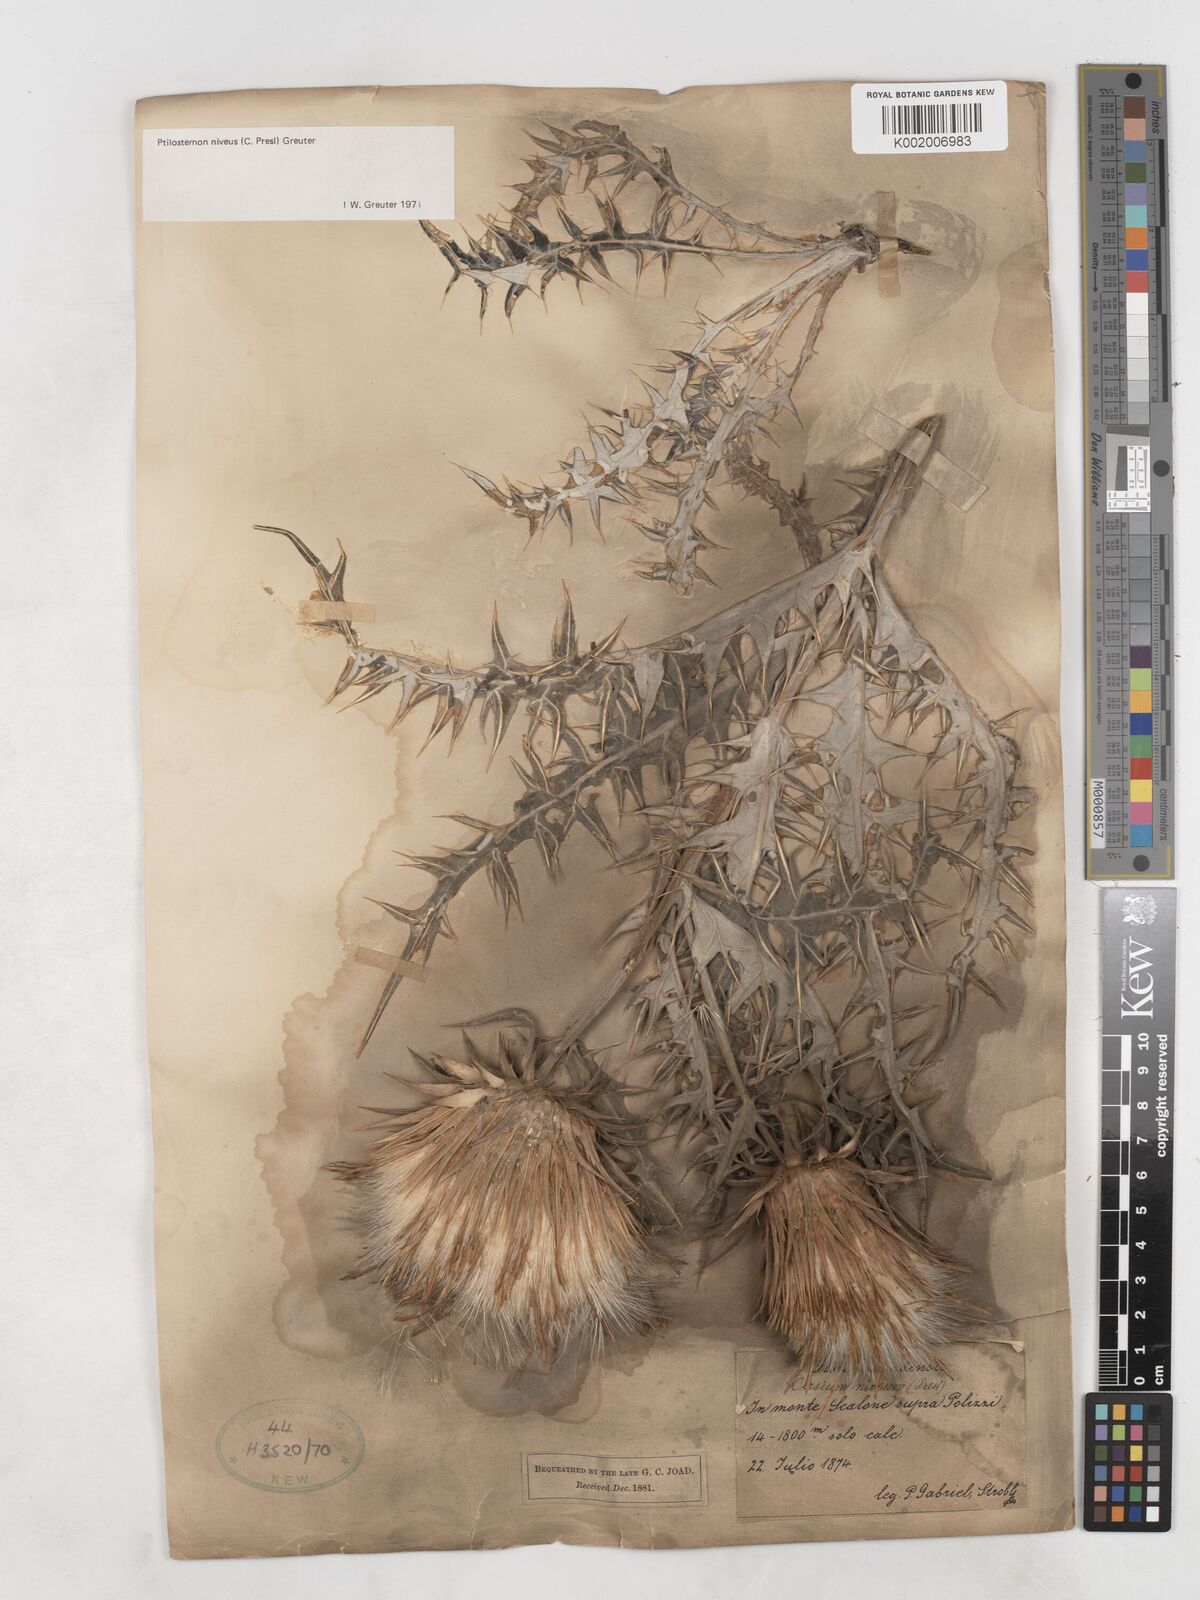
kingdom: Plantae
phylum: Tracheophyta
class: Magnoliopsida
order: Asterales
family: Asteraceae
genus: Ptilostemon
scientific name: Ptilostemon niveus
